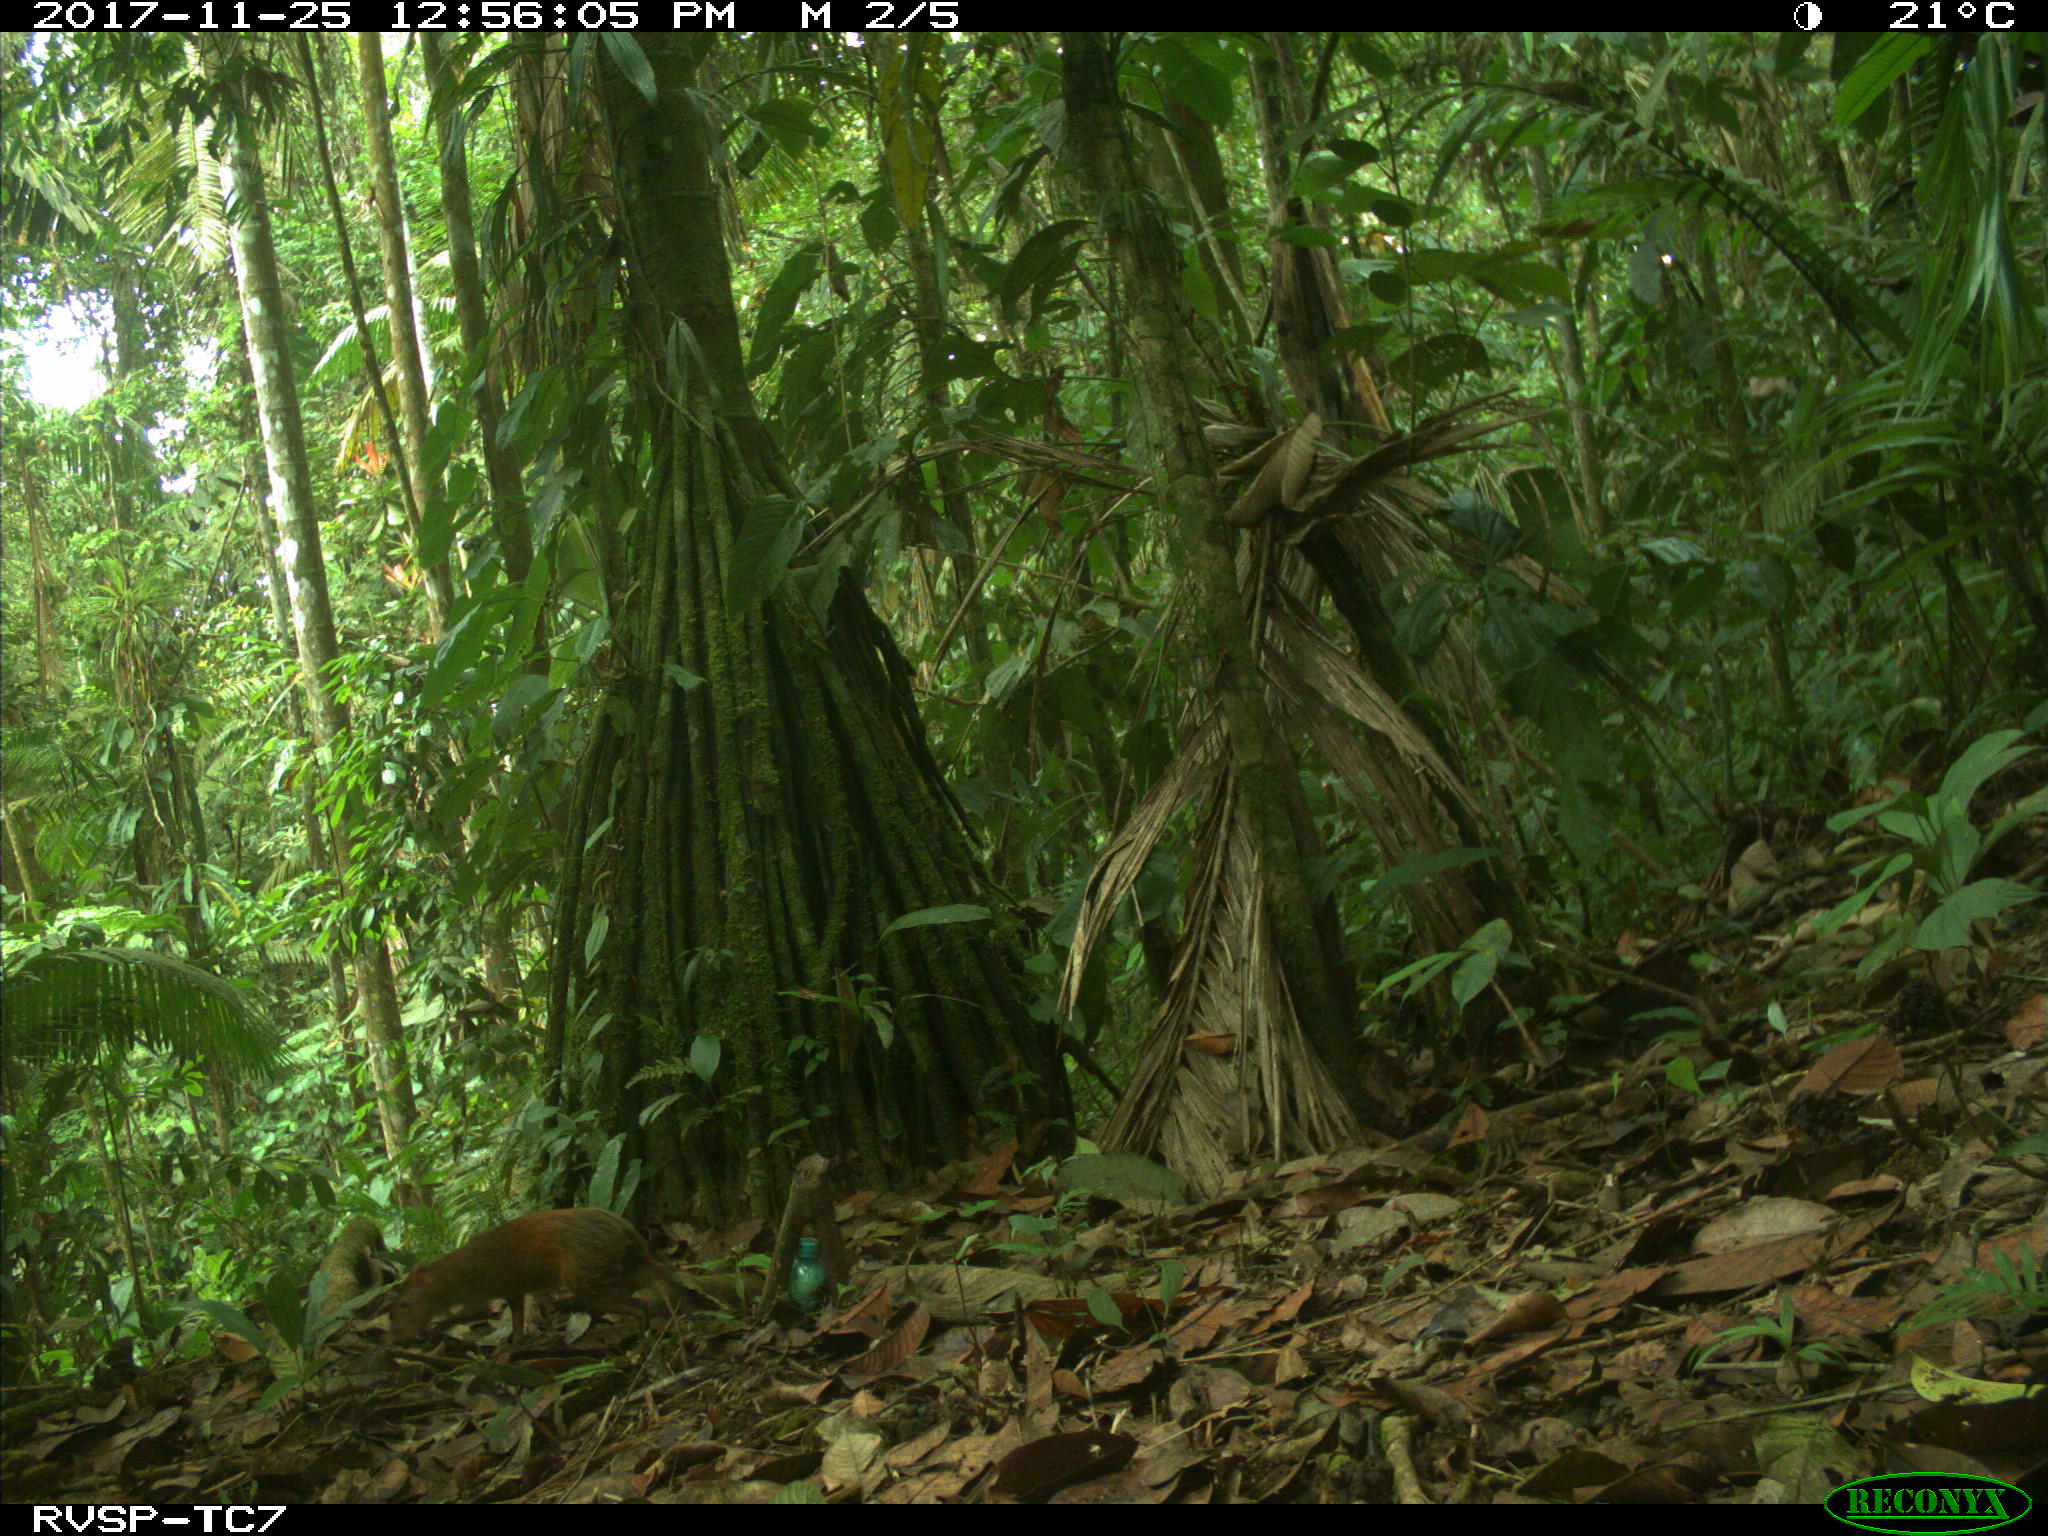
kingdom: Animalia
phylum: Chordata
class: Mammalia
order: Rodentia
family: Dasyproctidae
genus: Dasyprocta
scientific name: Dasyprocta punctata
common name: Central american agouti
